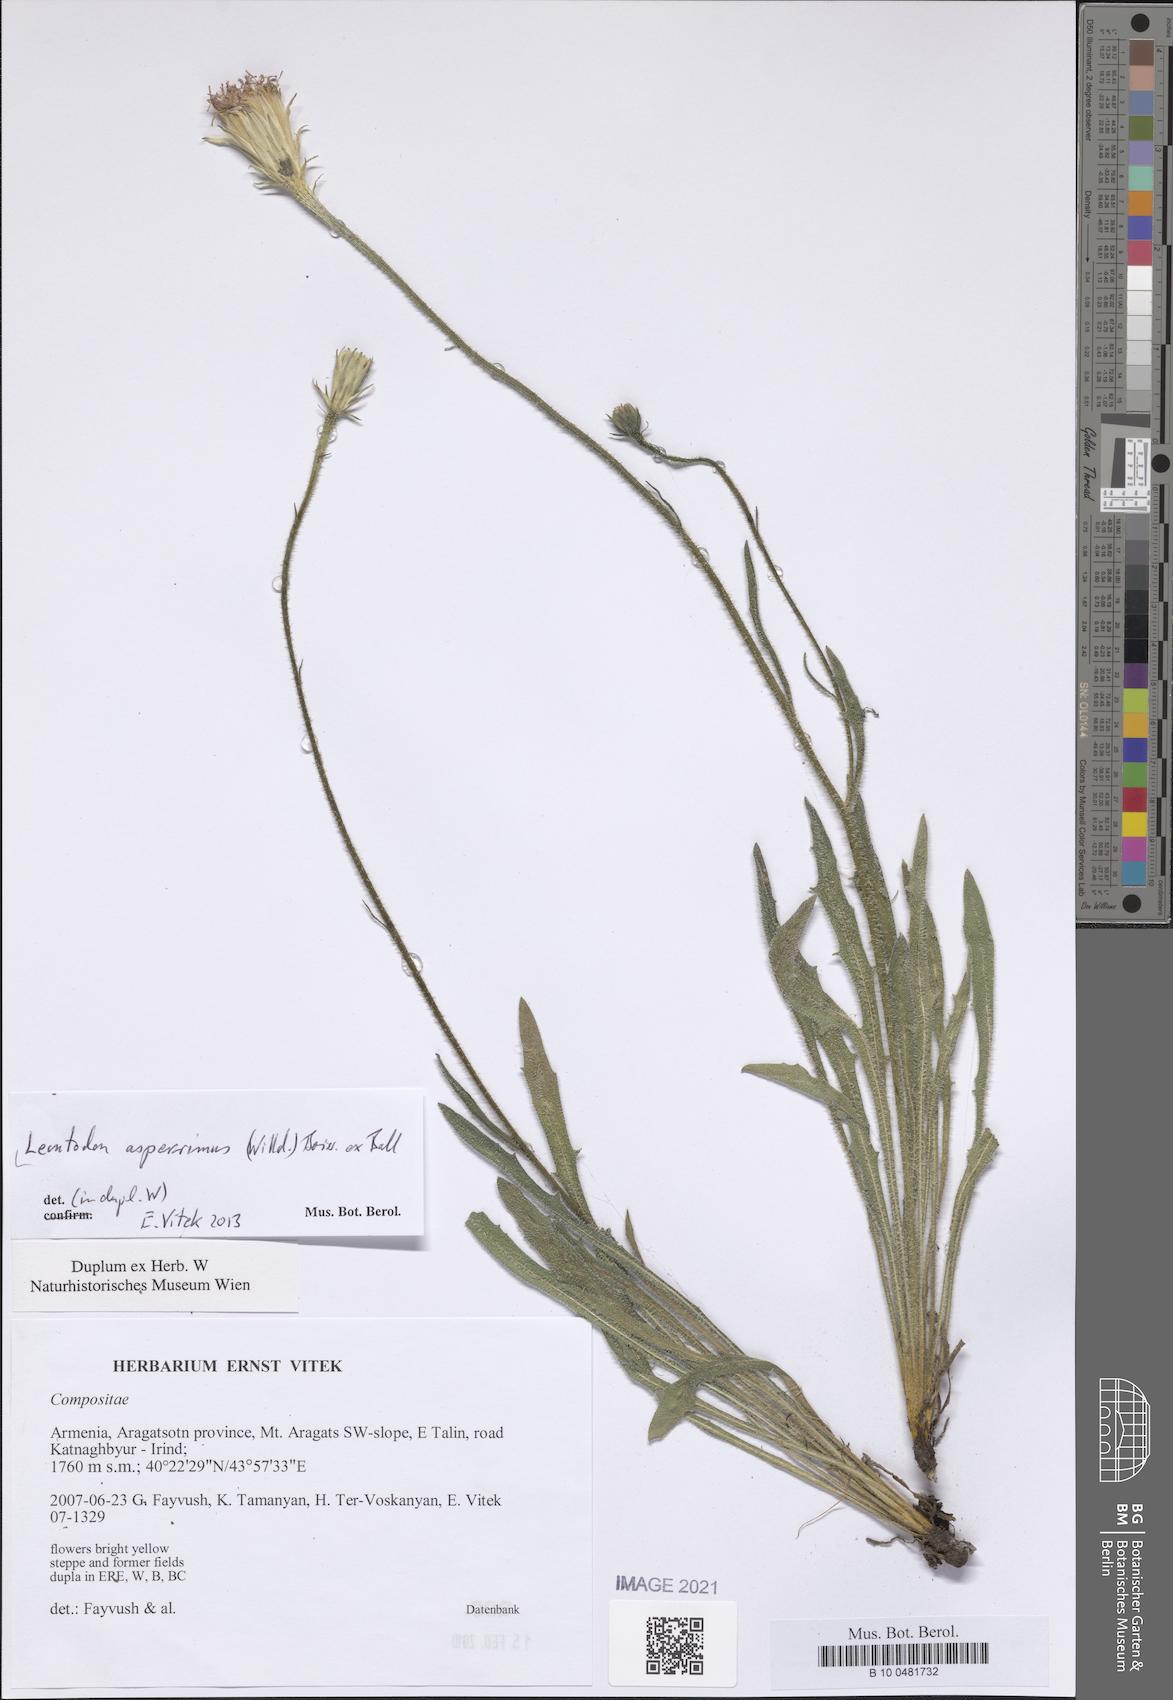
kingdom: Plantae
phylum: Tracheophyta
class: Magnoliopsida
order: Asterales
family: Asteraceae
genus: Leontodon
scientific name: Leontodon asperrimus
